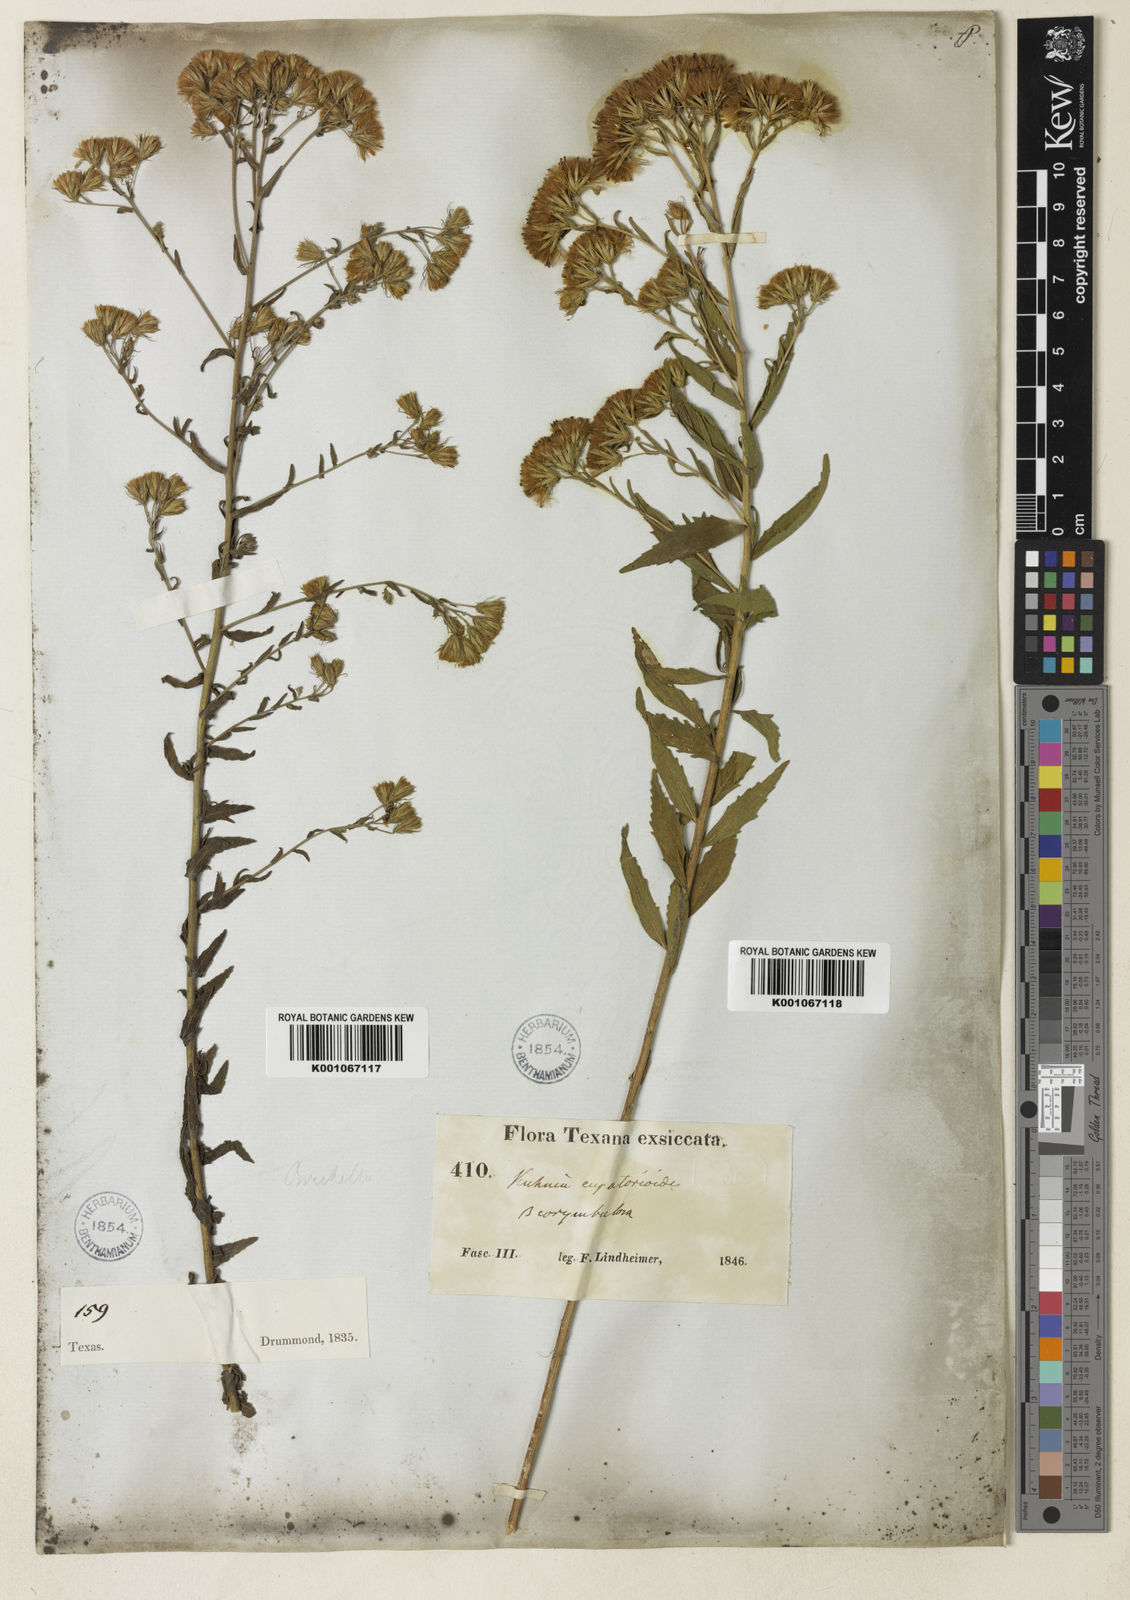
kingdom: Plantae
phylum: Tracheophyta
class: Magnoliopsida
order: Asterales
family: Asteraceae
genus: Brickellia
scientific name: Brickellia suaveolens
